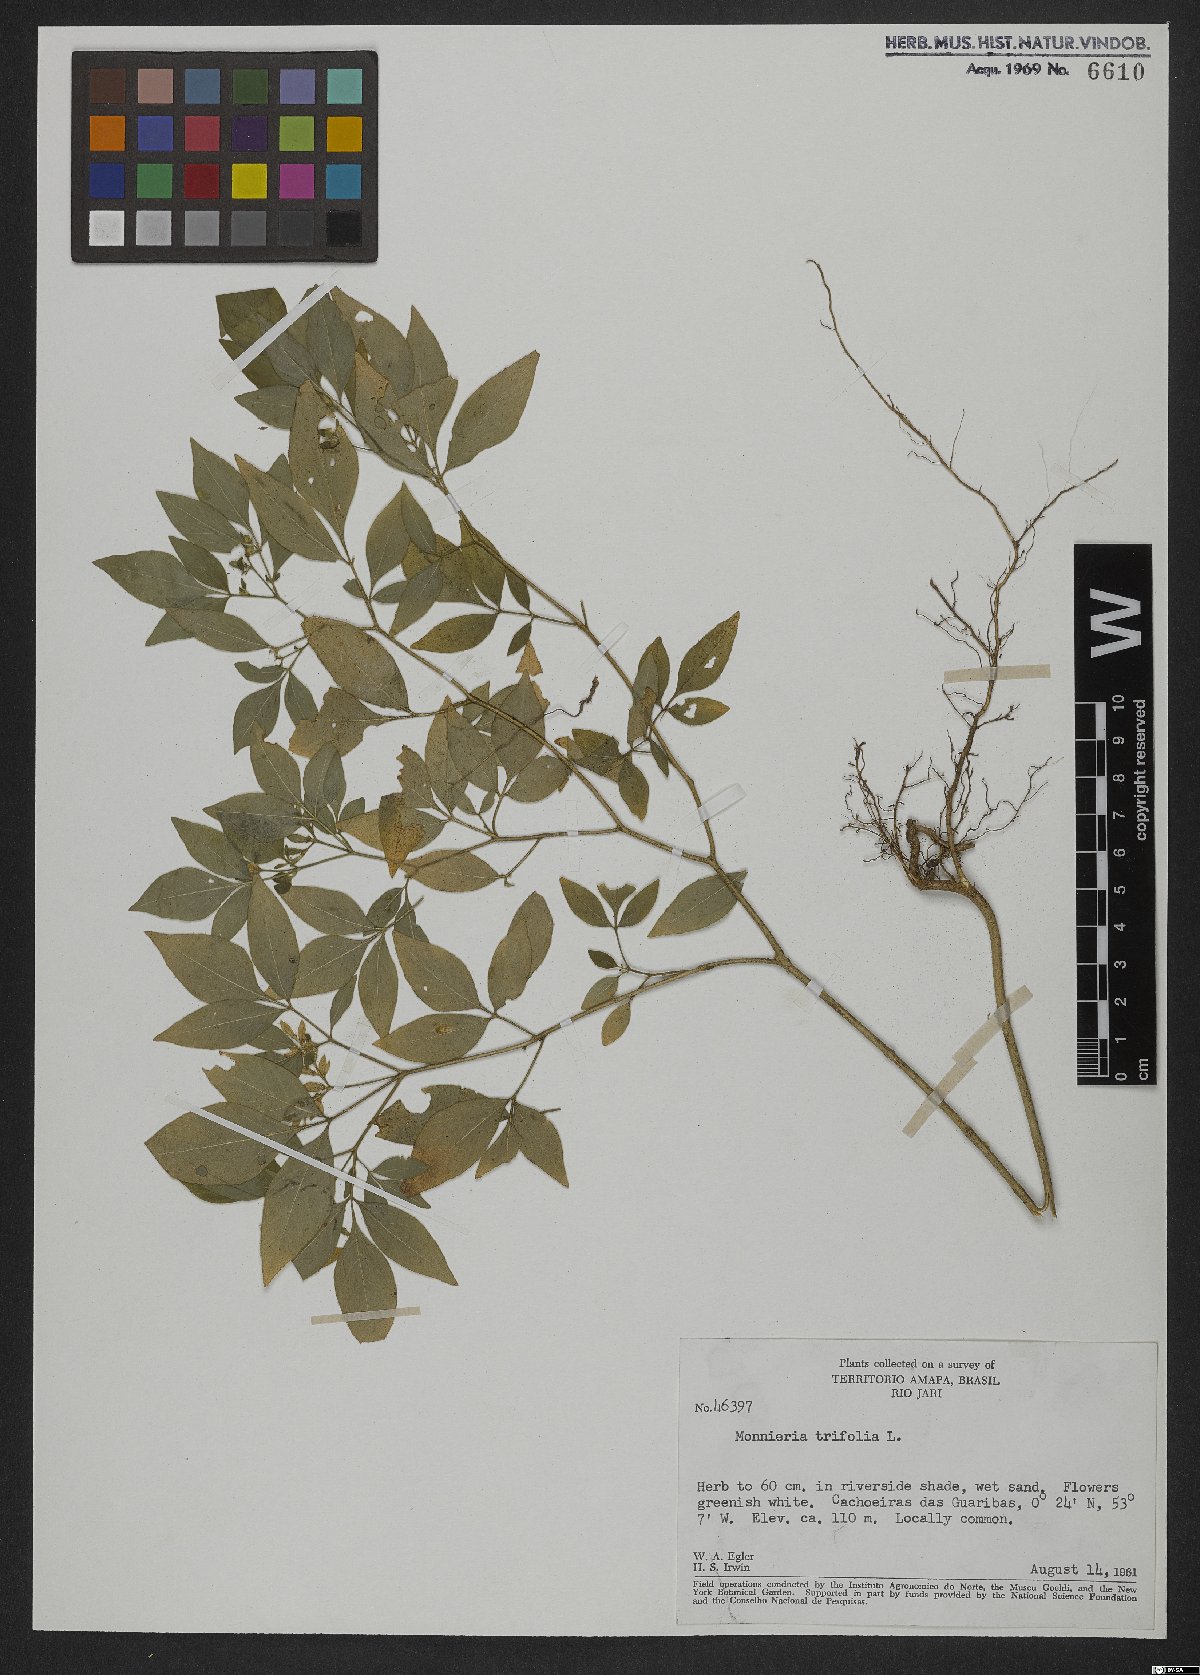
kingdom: Plantae
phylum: Tracheophyta
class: Magnoliopsida
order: Sapindales
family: Rutaceae
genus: Ertela
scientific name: Ertela trifolia
